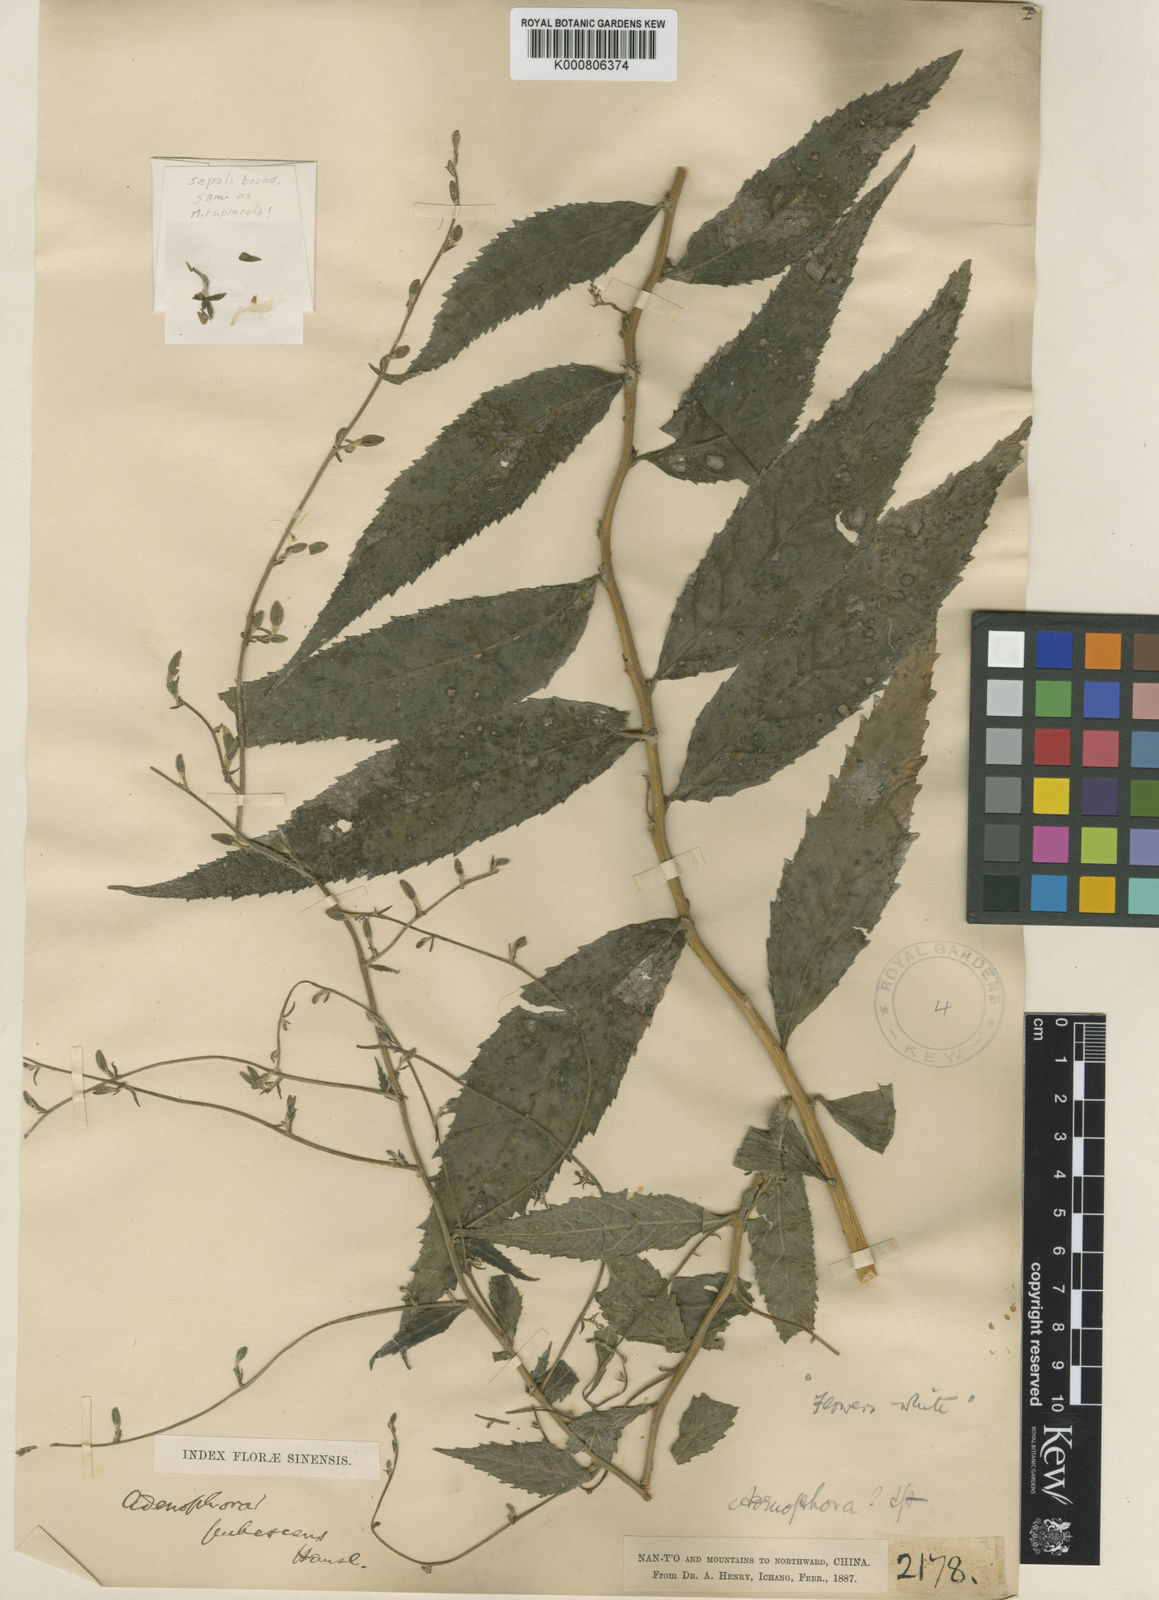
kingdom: Plantae
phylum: Tracheophyta
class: Magnoliopsida
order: Asterales
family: Campanulaceae
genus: Adenophora
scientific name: Adenophora rupincola
